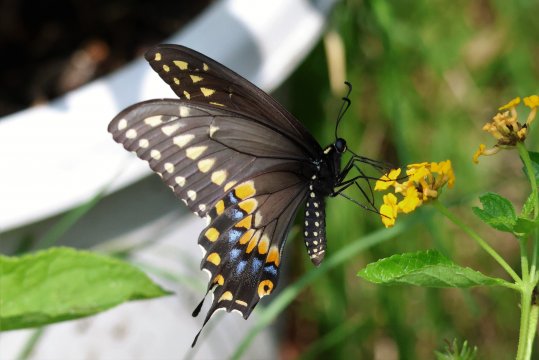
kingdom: Animalia
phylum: Arthropoda
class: Insecta
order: Lepidoptera
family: Papilionidae
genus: Papilio
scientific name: Papilio polyxenes
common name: Black Swallowtail
